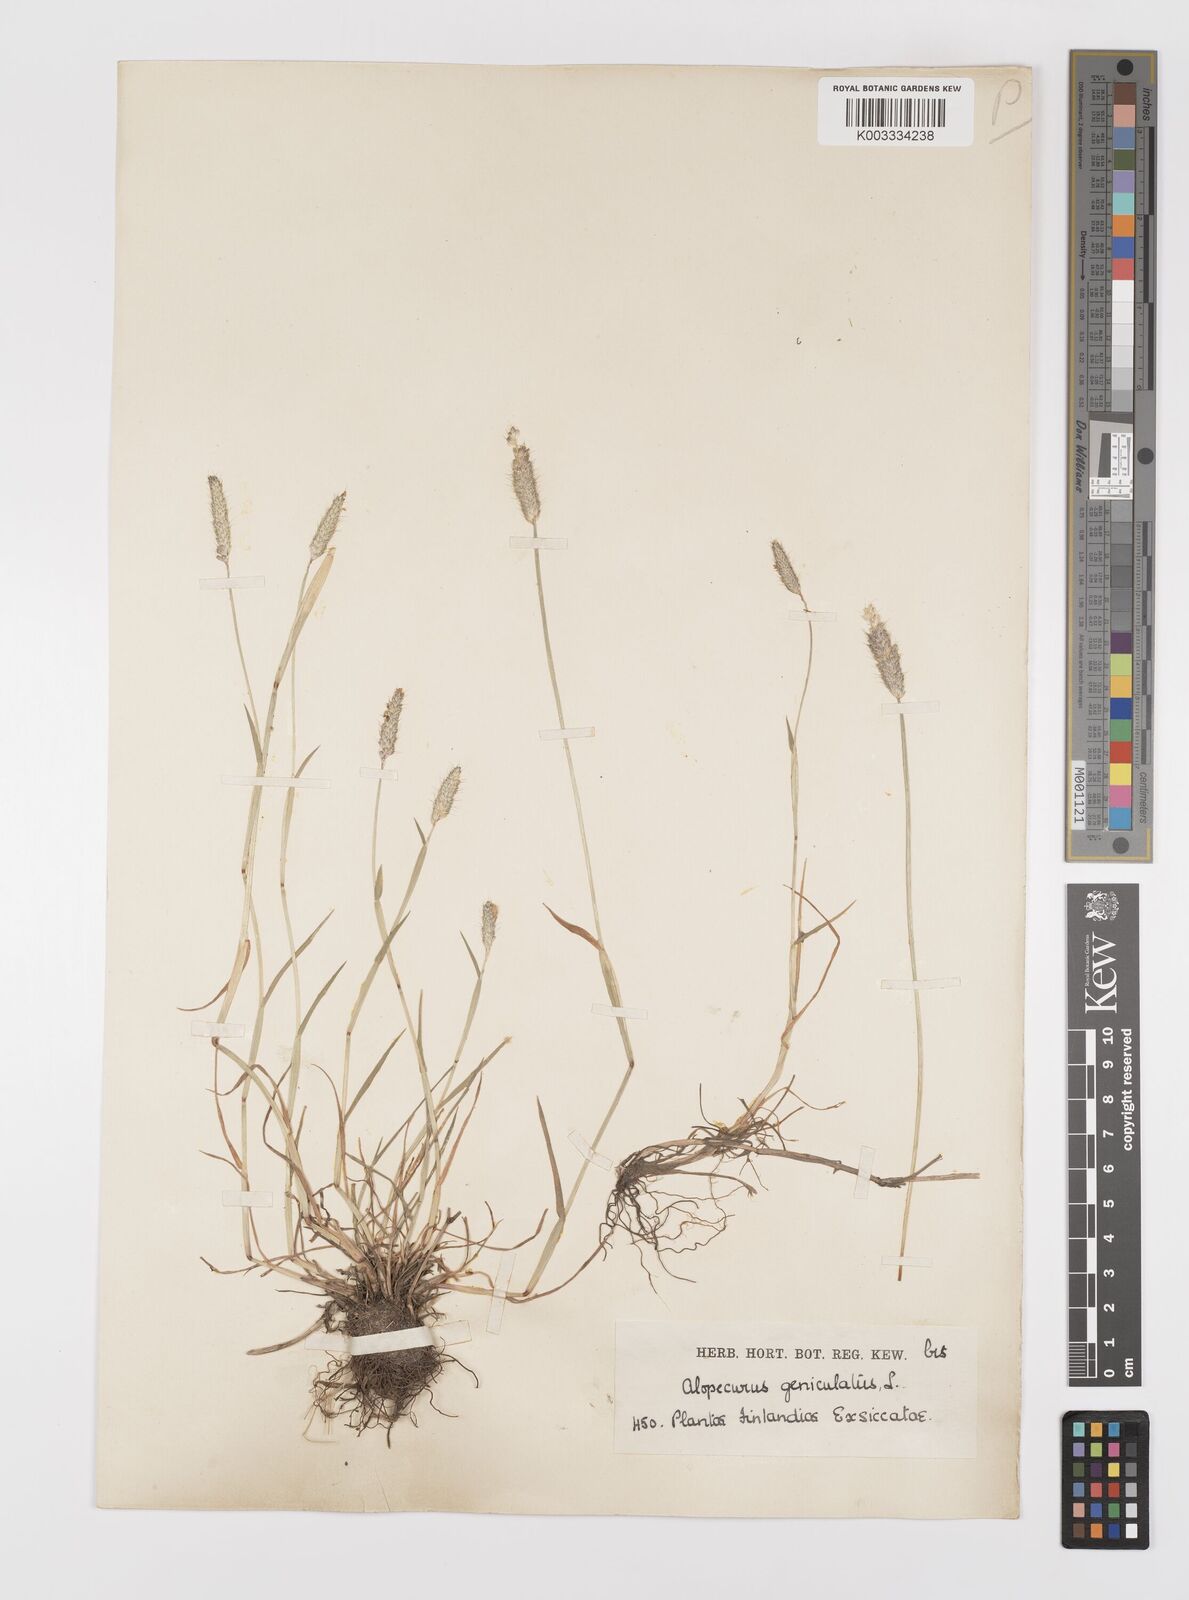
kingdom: Plantae
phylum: Tracheophyta
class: Liliopsida
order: Poales
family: Poaceae
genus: Alopecurus
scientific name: Alopecurus geniculatus
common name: Water foxtail
